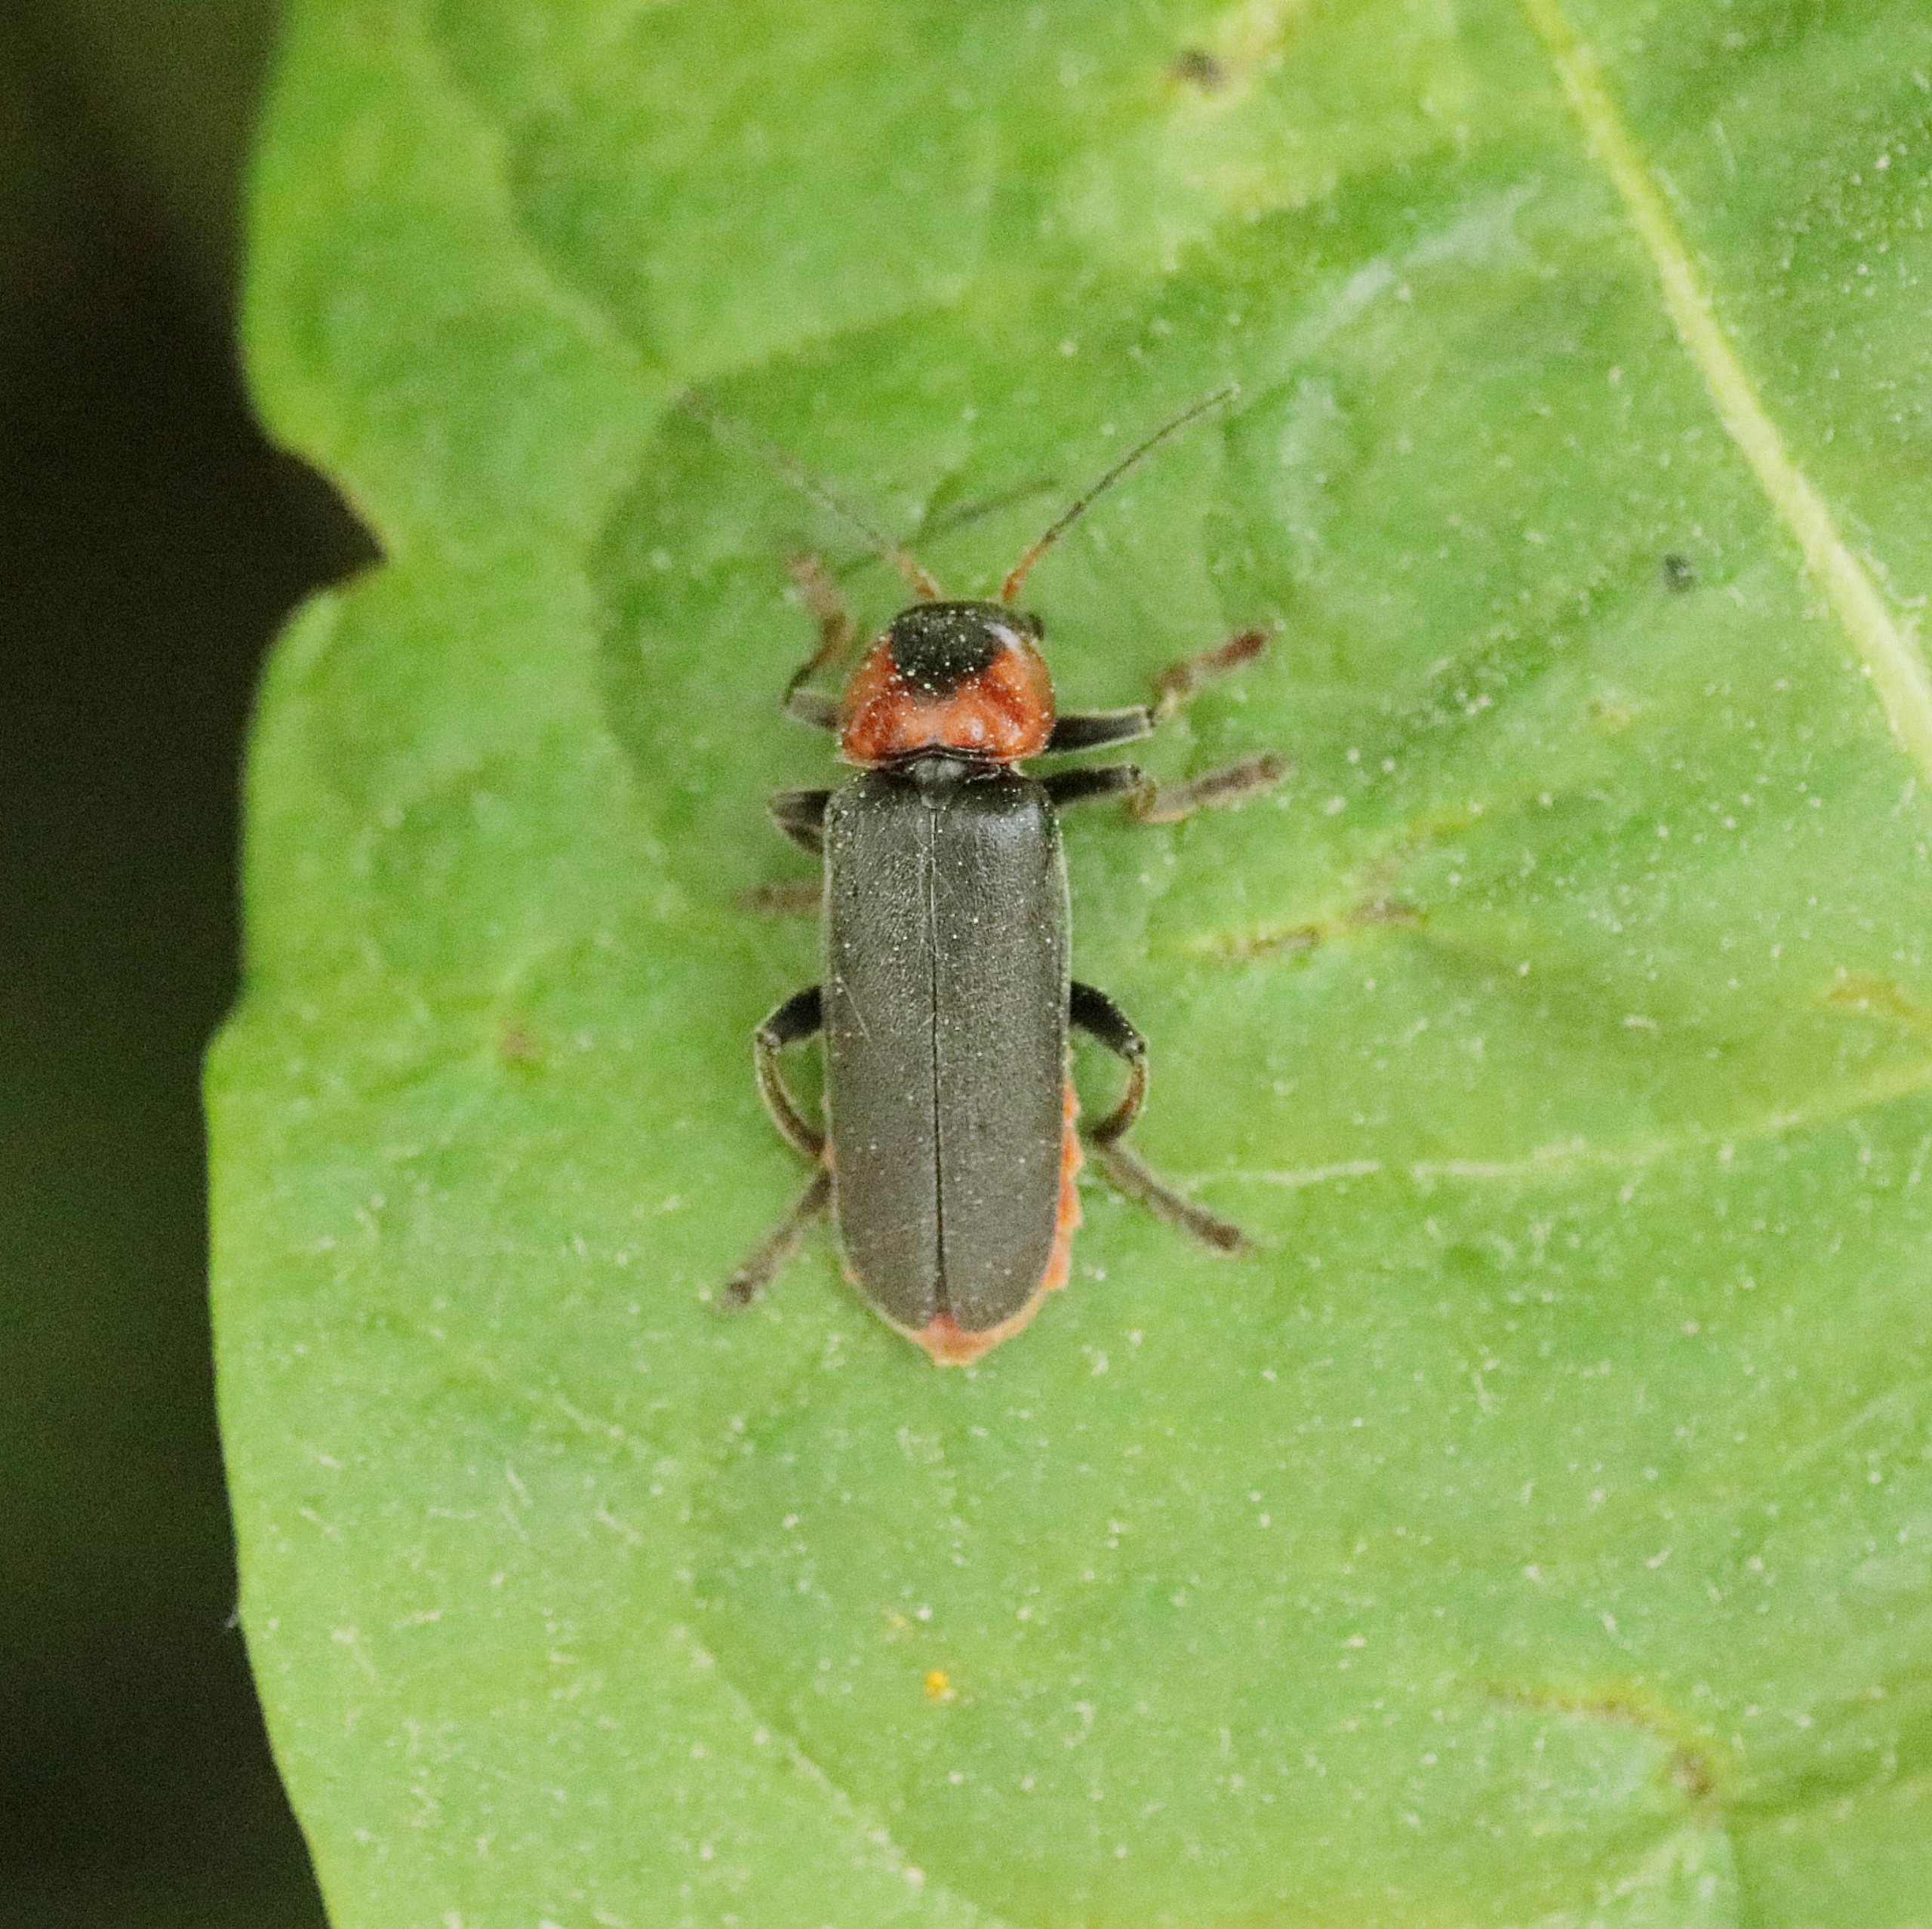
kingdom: Animalia
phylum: Arthropoda
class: Insecta
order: Coleoptera
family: Cantharidae
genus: Cantharis
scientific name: Cantharis fusca
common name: Stor blødvinge
